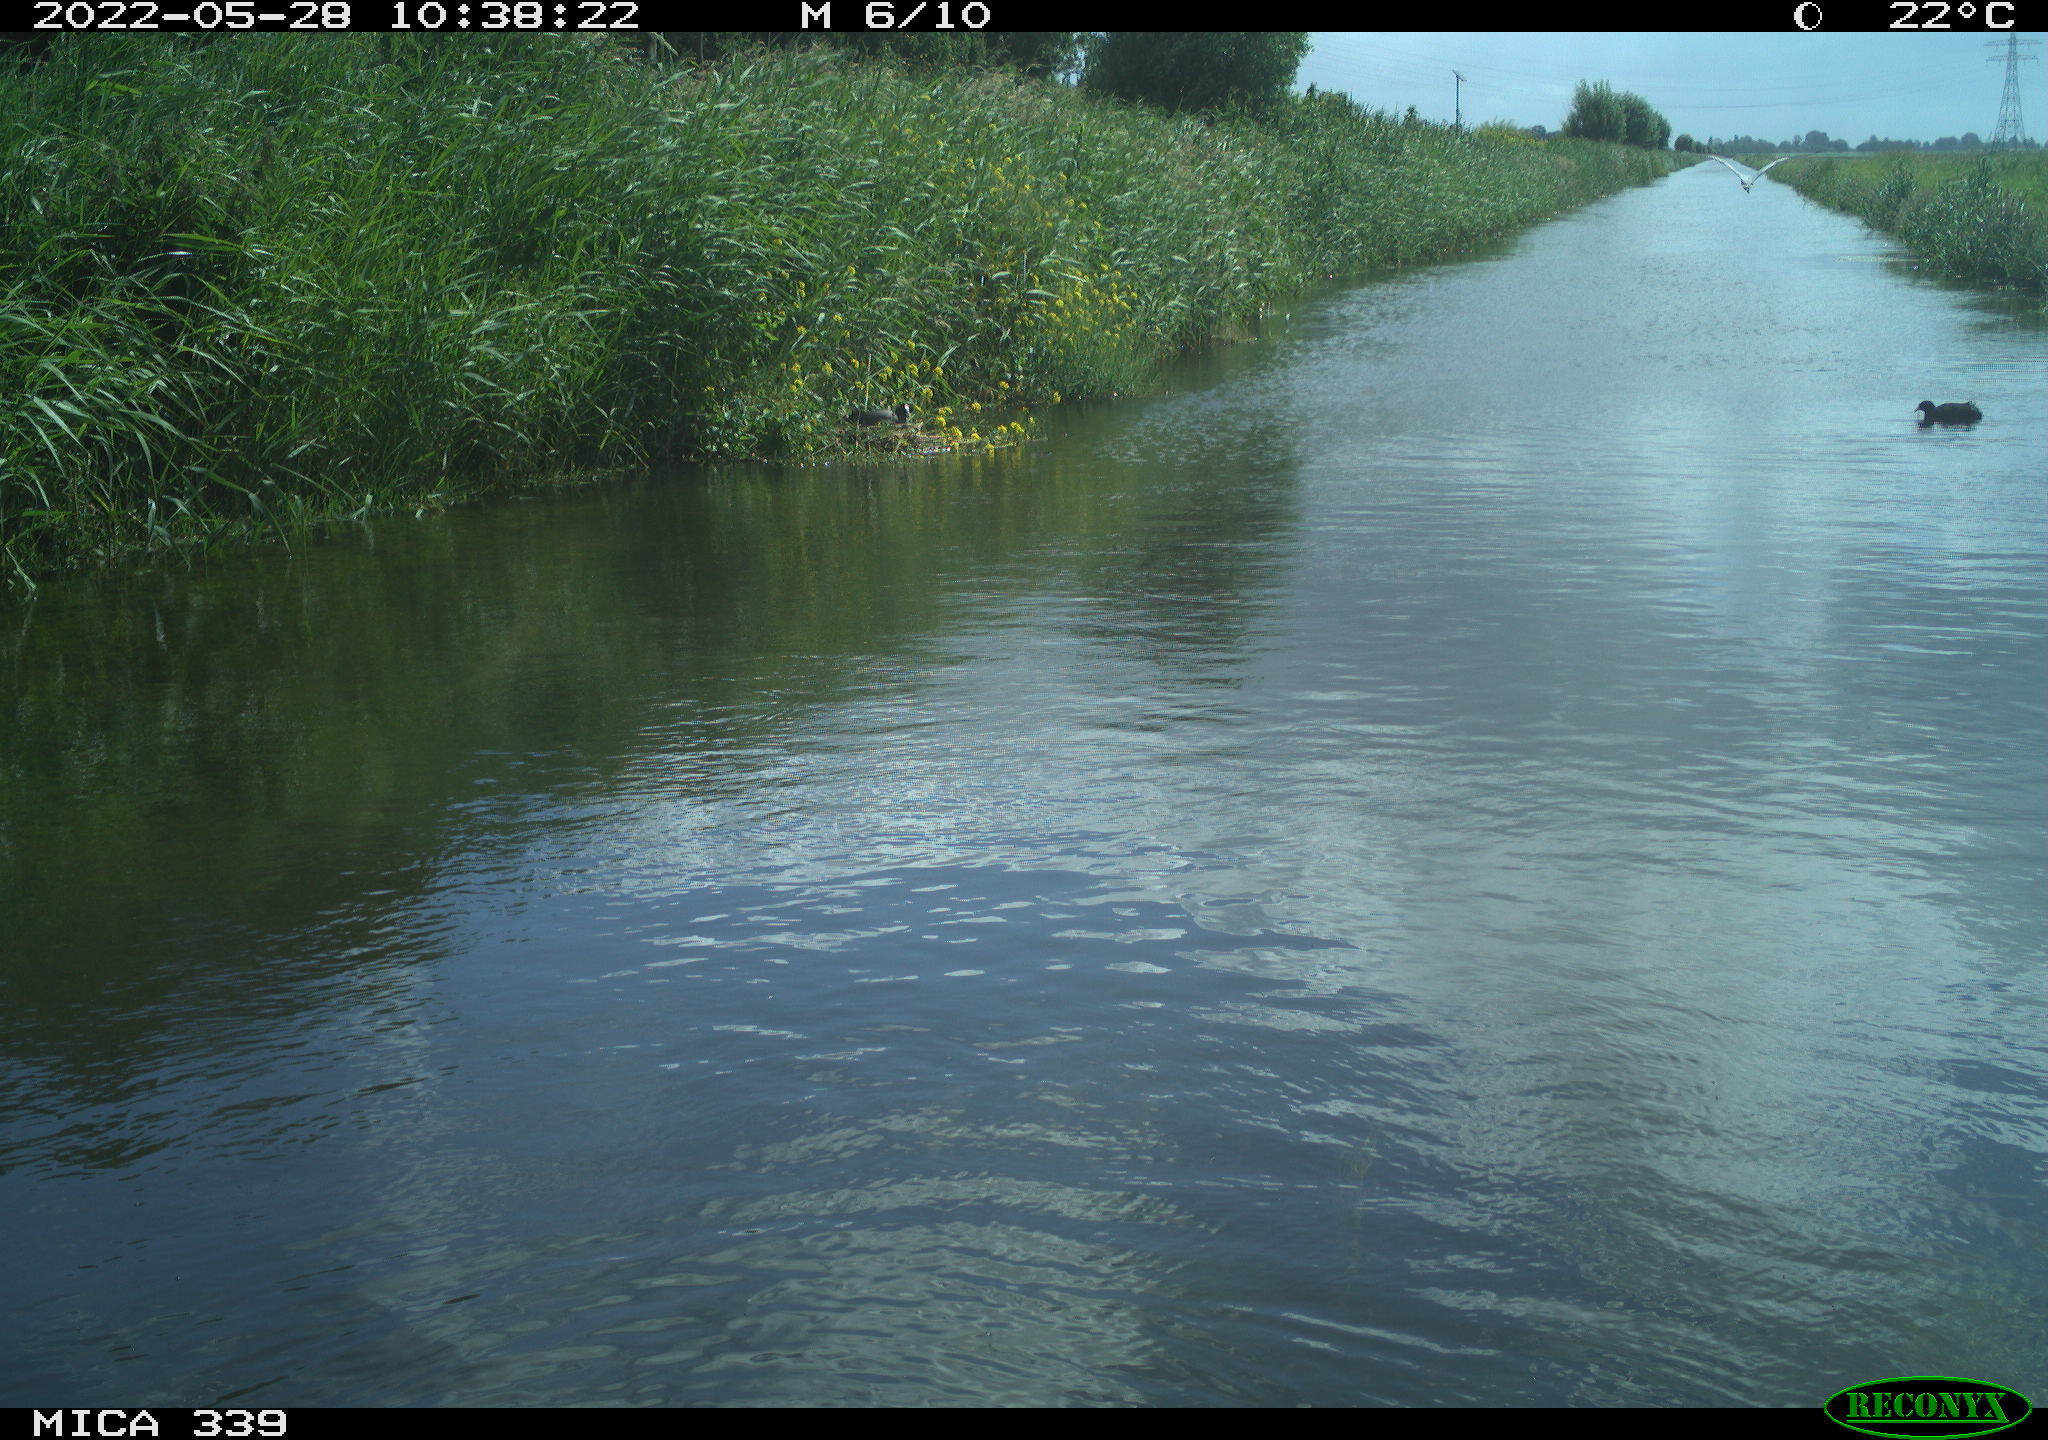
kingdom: Animalia
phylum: Chordata
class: Aves
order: Gruiformes
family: Rallidae
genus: Fulica
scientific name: Fulica atra
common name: Eurasian coot
